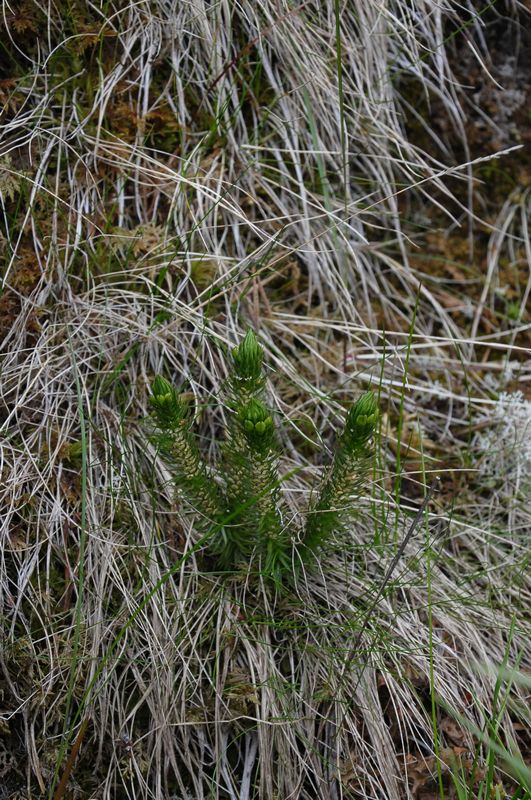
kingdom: Plantae
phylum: Tracheophyta
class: Lycopodiopsida
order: Lycopodiales
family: Lycopodiaceae
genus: Huperzia
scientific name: Huperzia selago
